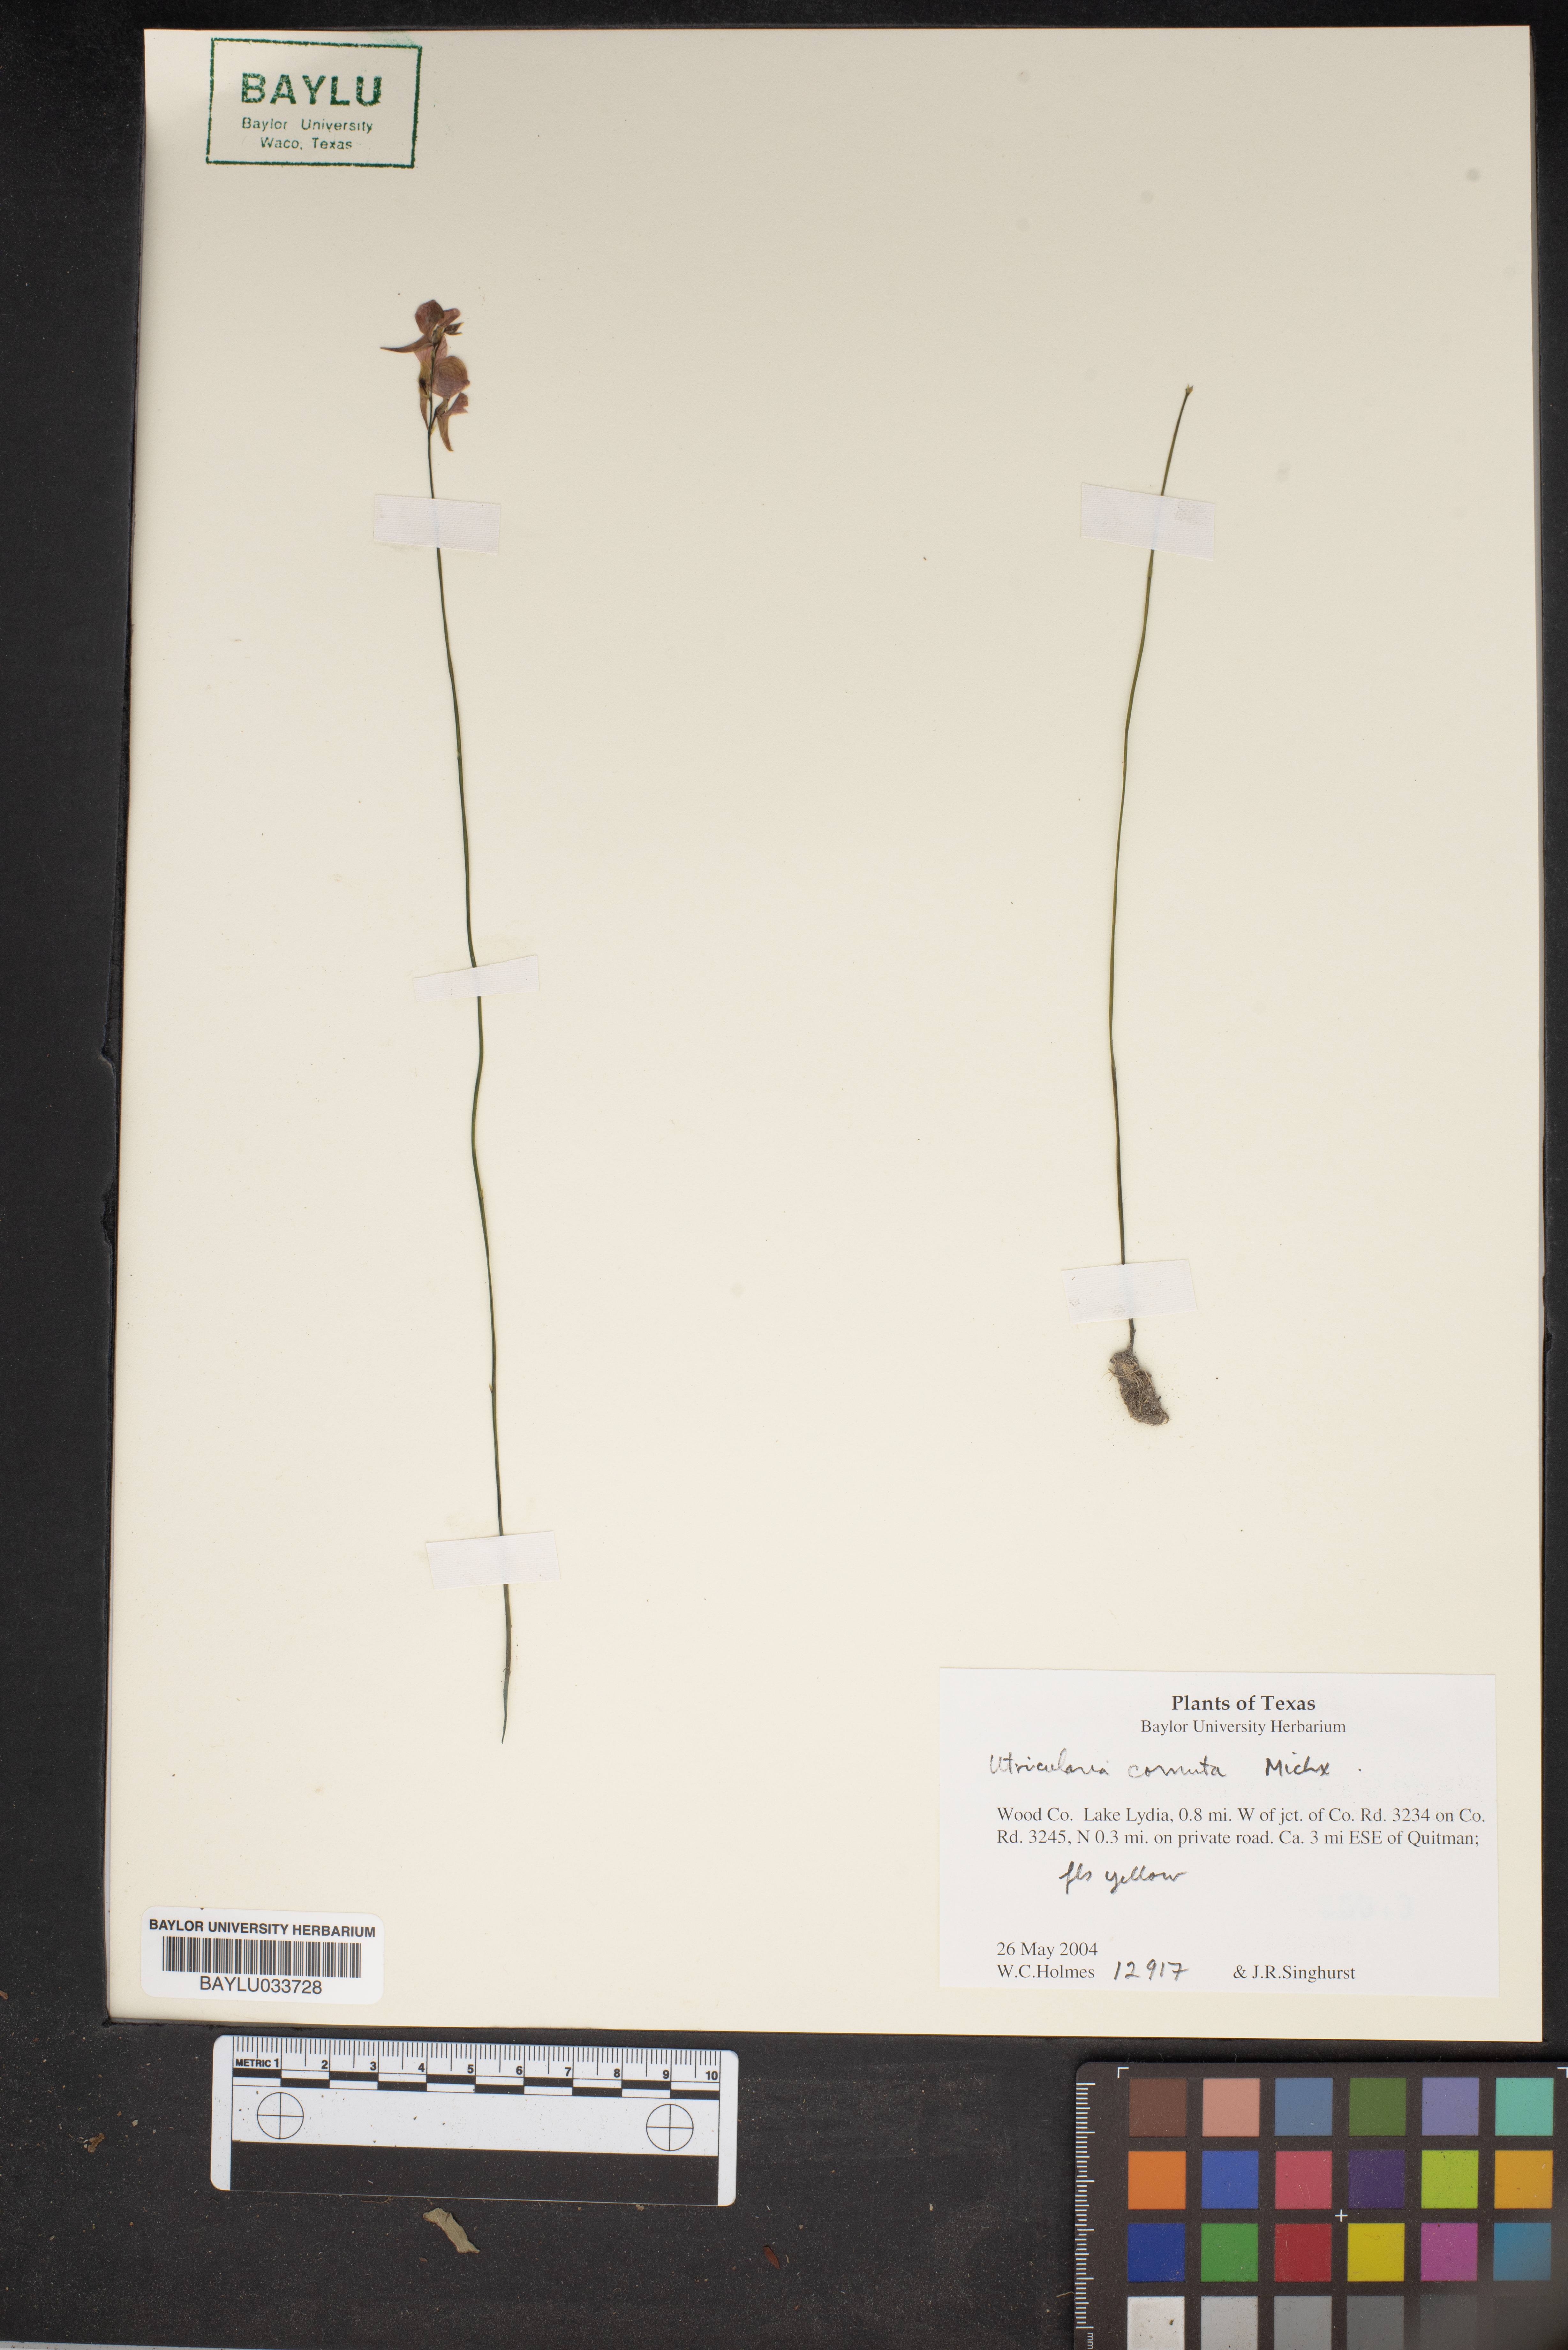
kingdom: Plantae
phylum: Tracheophyta
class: Magnoliopsida
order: Lamiales
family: Lentibulariaceae
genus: Utricularia
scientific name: Utricularia cornuta
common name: Horned bladderwort
